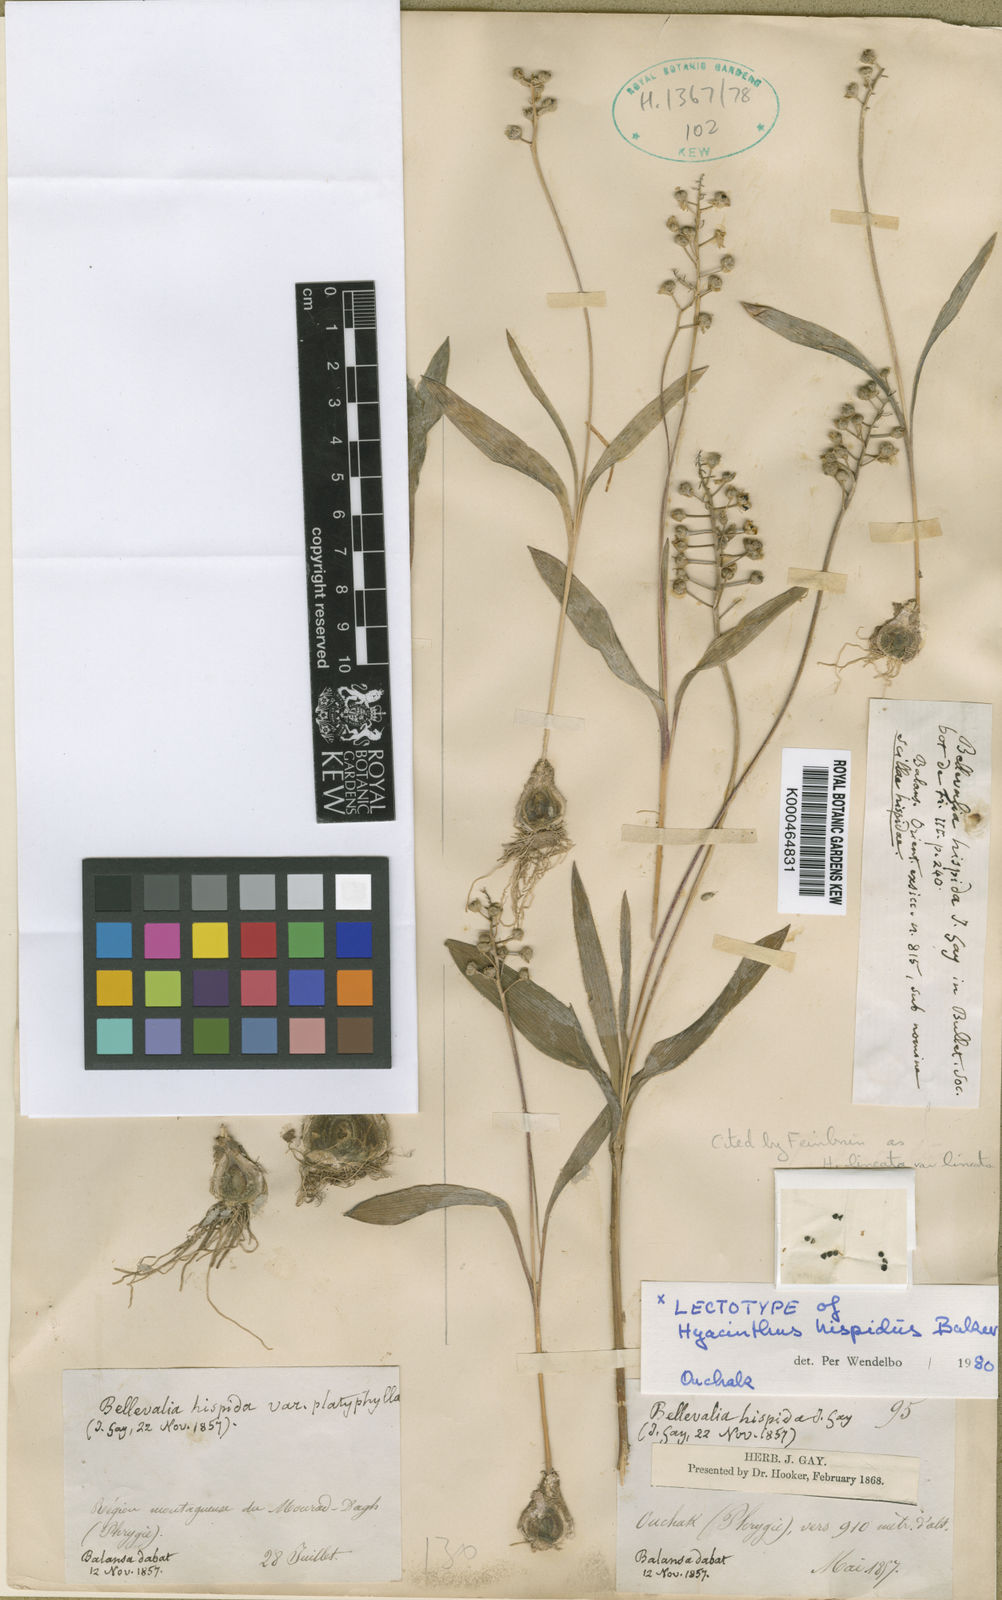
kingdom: Plantae
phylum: Tracheophyta
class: Liliopsida
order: Asparagales
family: Asparagaceae
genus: Hyacinthella
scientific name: Hyacinthella lineata
